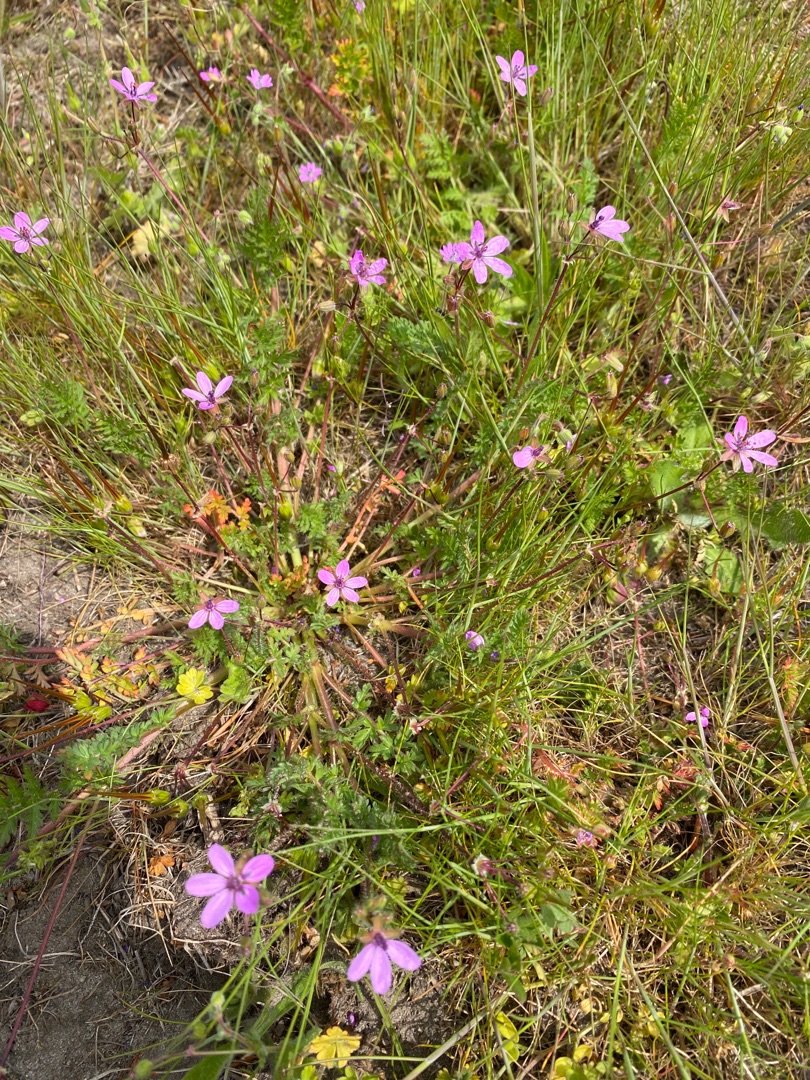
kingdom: Plantae
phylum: Tracheophyta
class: Magnoliopsida
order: Geraniales
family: Geraniaceae
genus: Erodium
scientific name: Erodium cicutarium
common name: Hejrenæb
